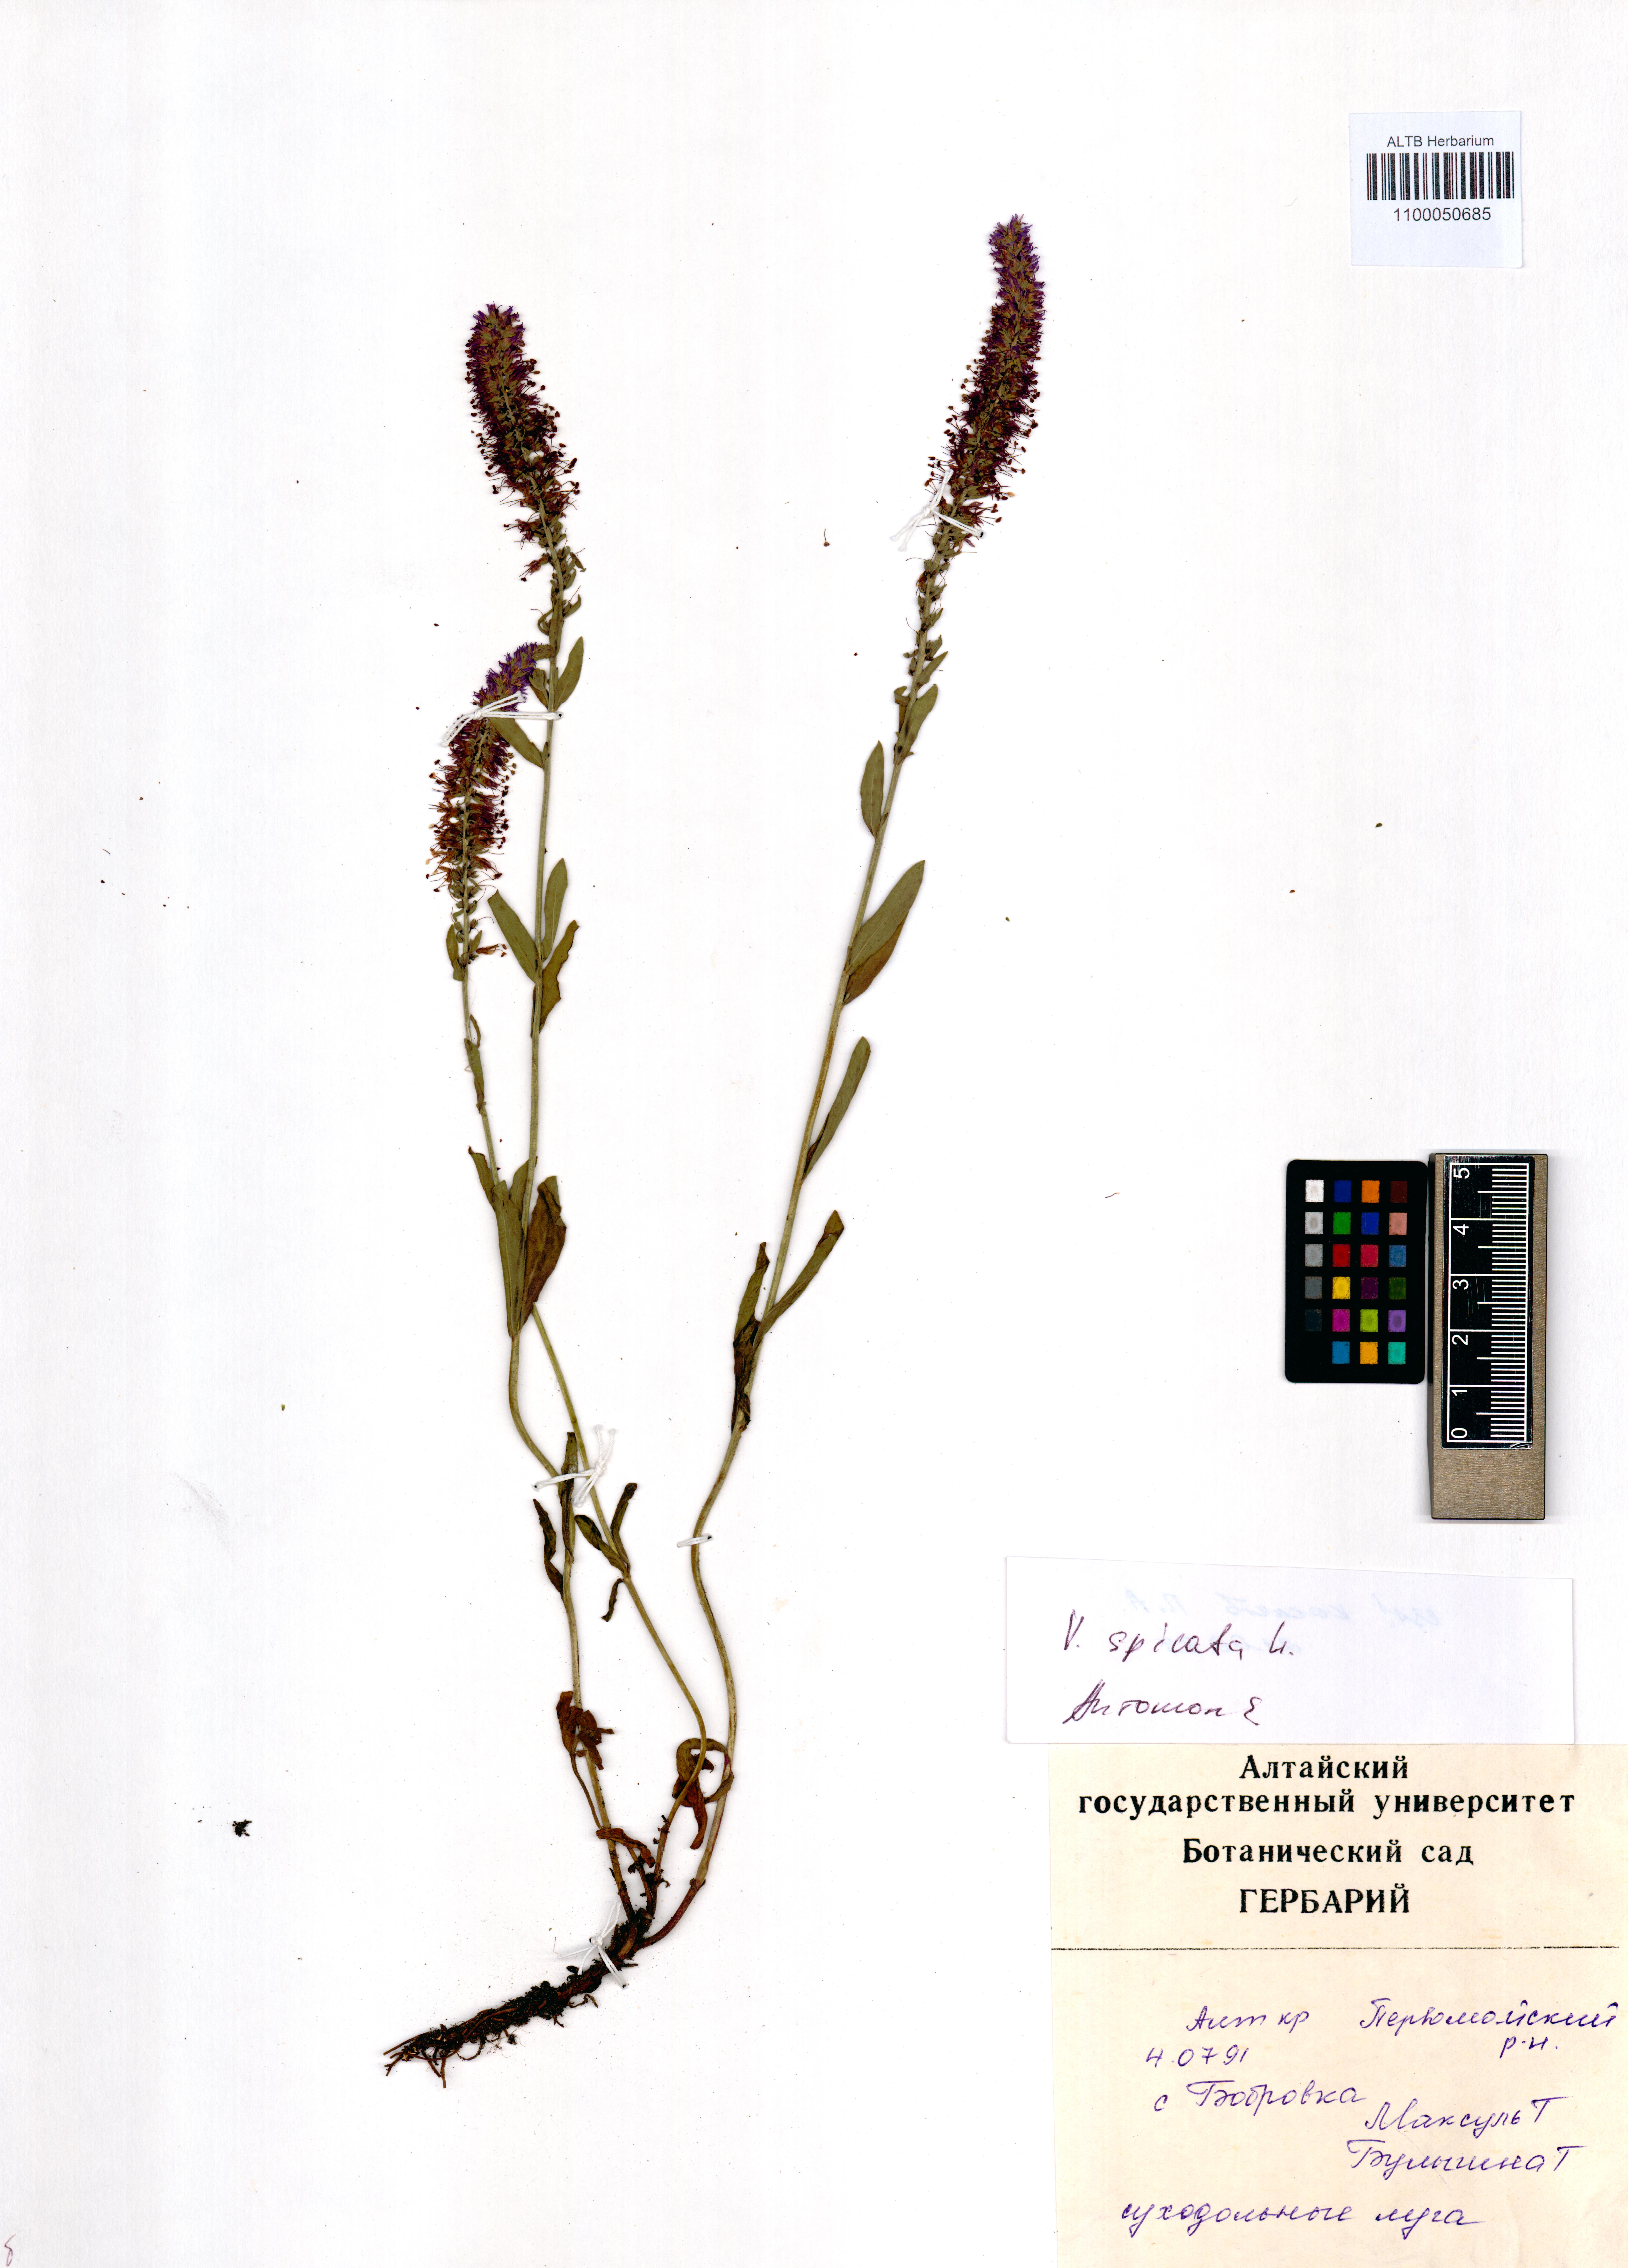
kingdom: Plantae
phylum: Tracheophyta
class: Magnoliopsida
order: Lamiales
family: Plantaginaceae
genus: Veronica
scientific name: Veronica spicata
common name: Spiked speedwell
